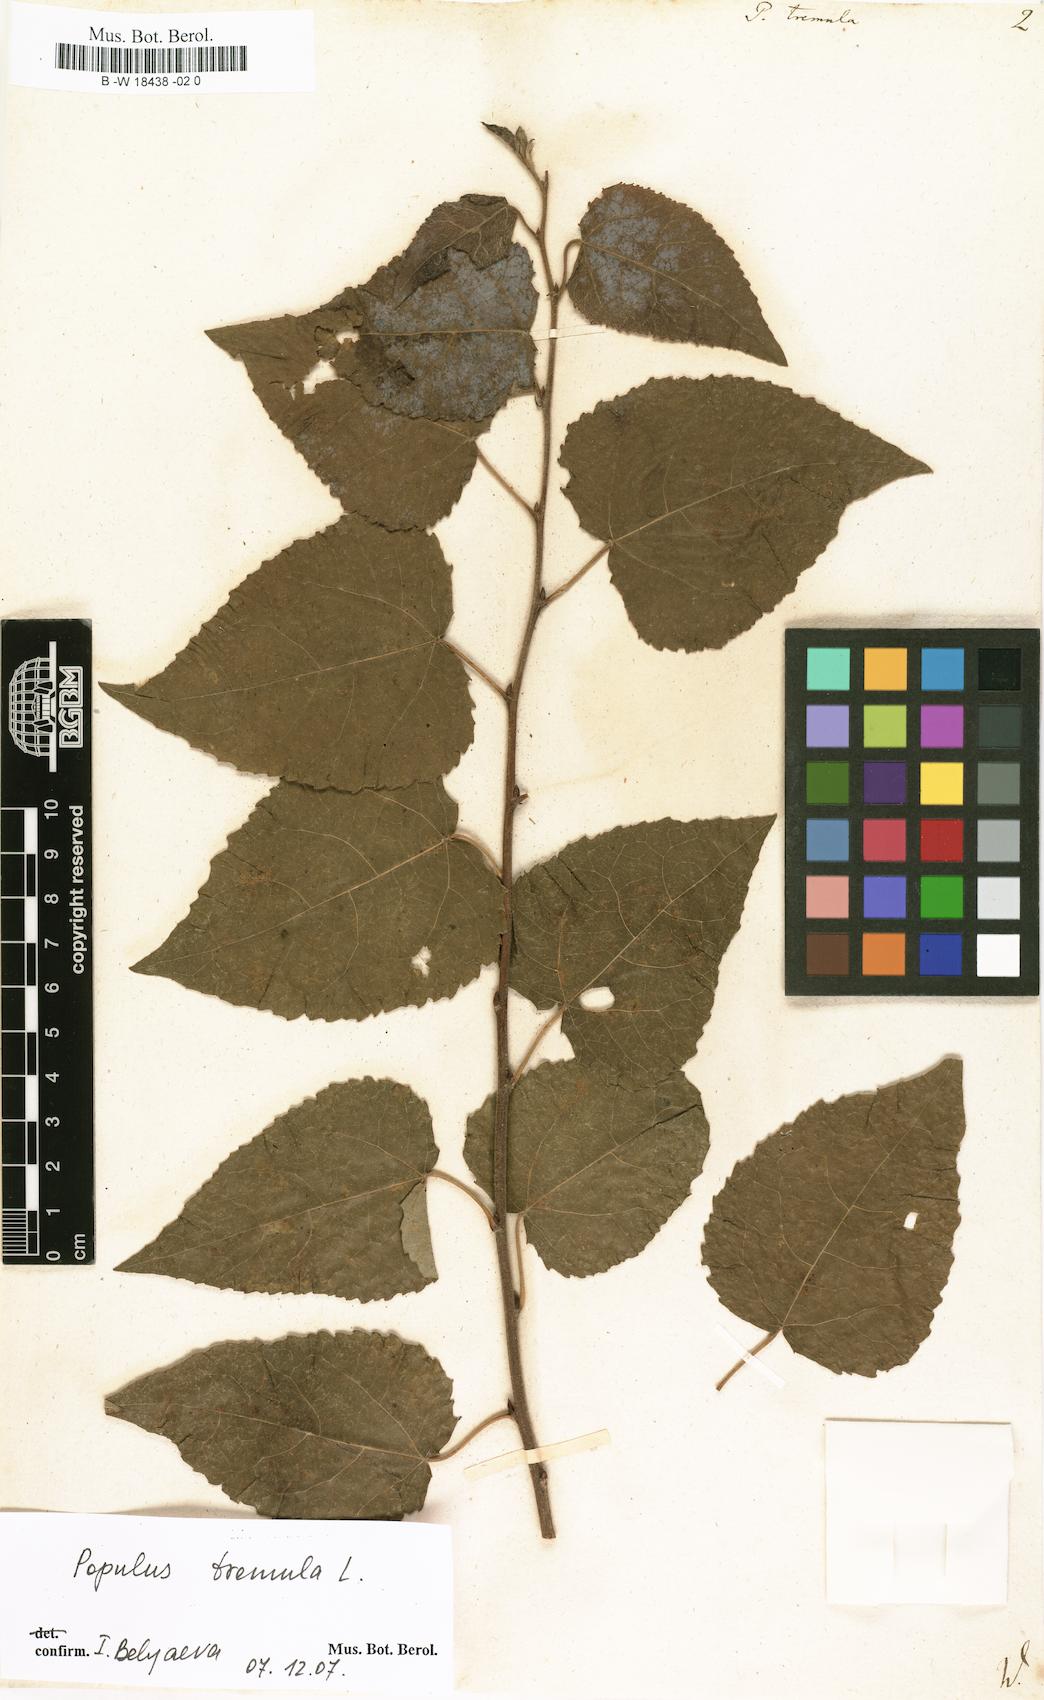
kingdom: Plantae
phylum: Tracheophyta
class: Magnoliopsida
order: Malpighiales
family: Salicaceae
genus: Populus
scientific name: Populus tremula
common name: European aspen
